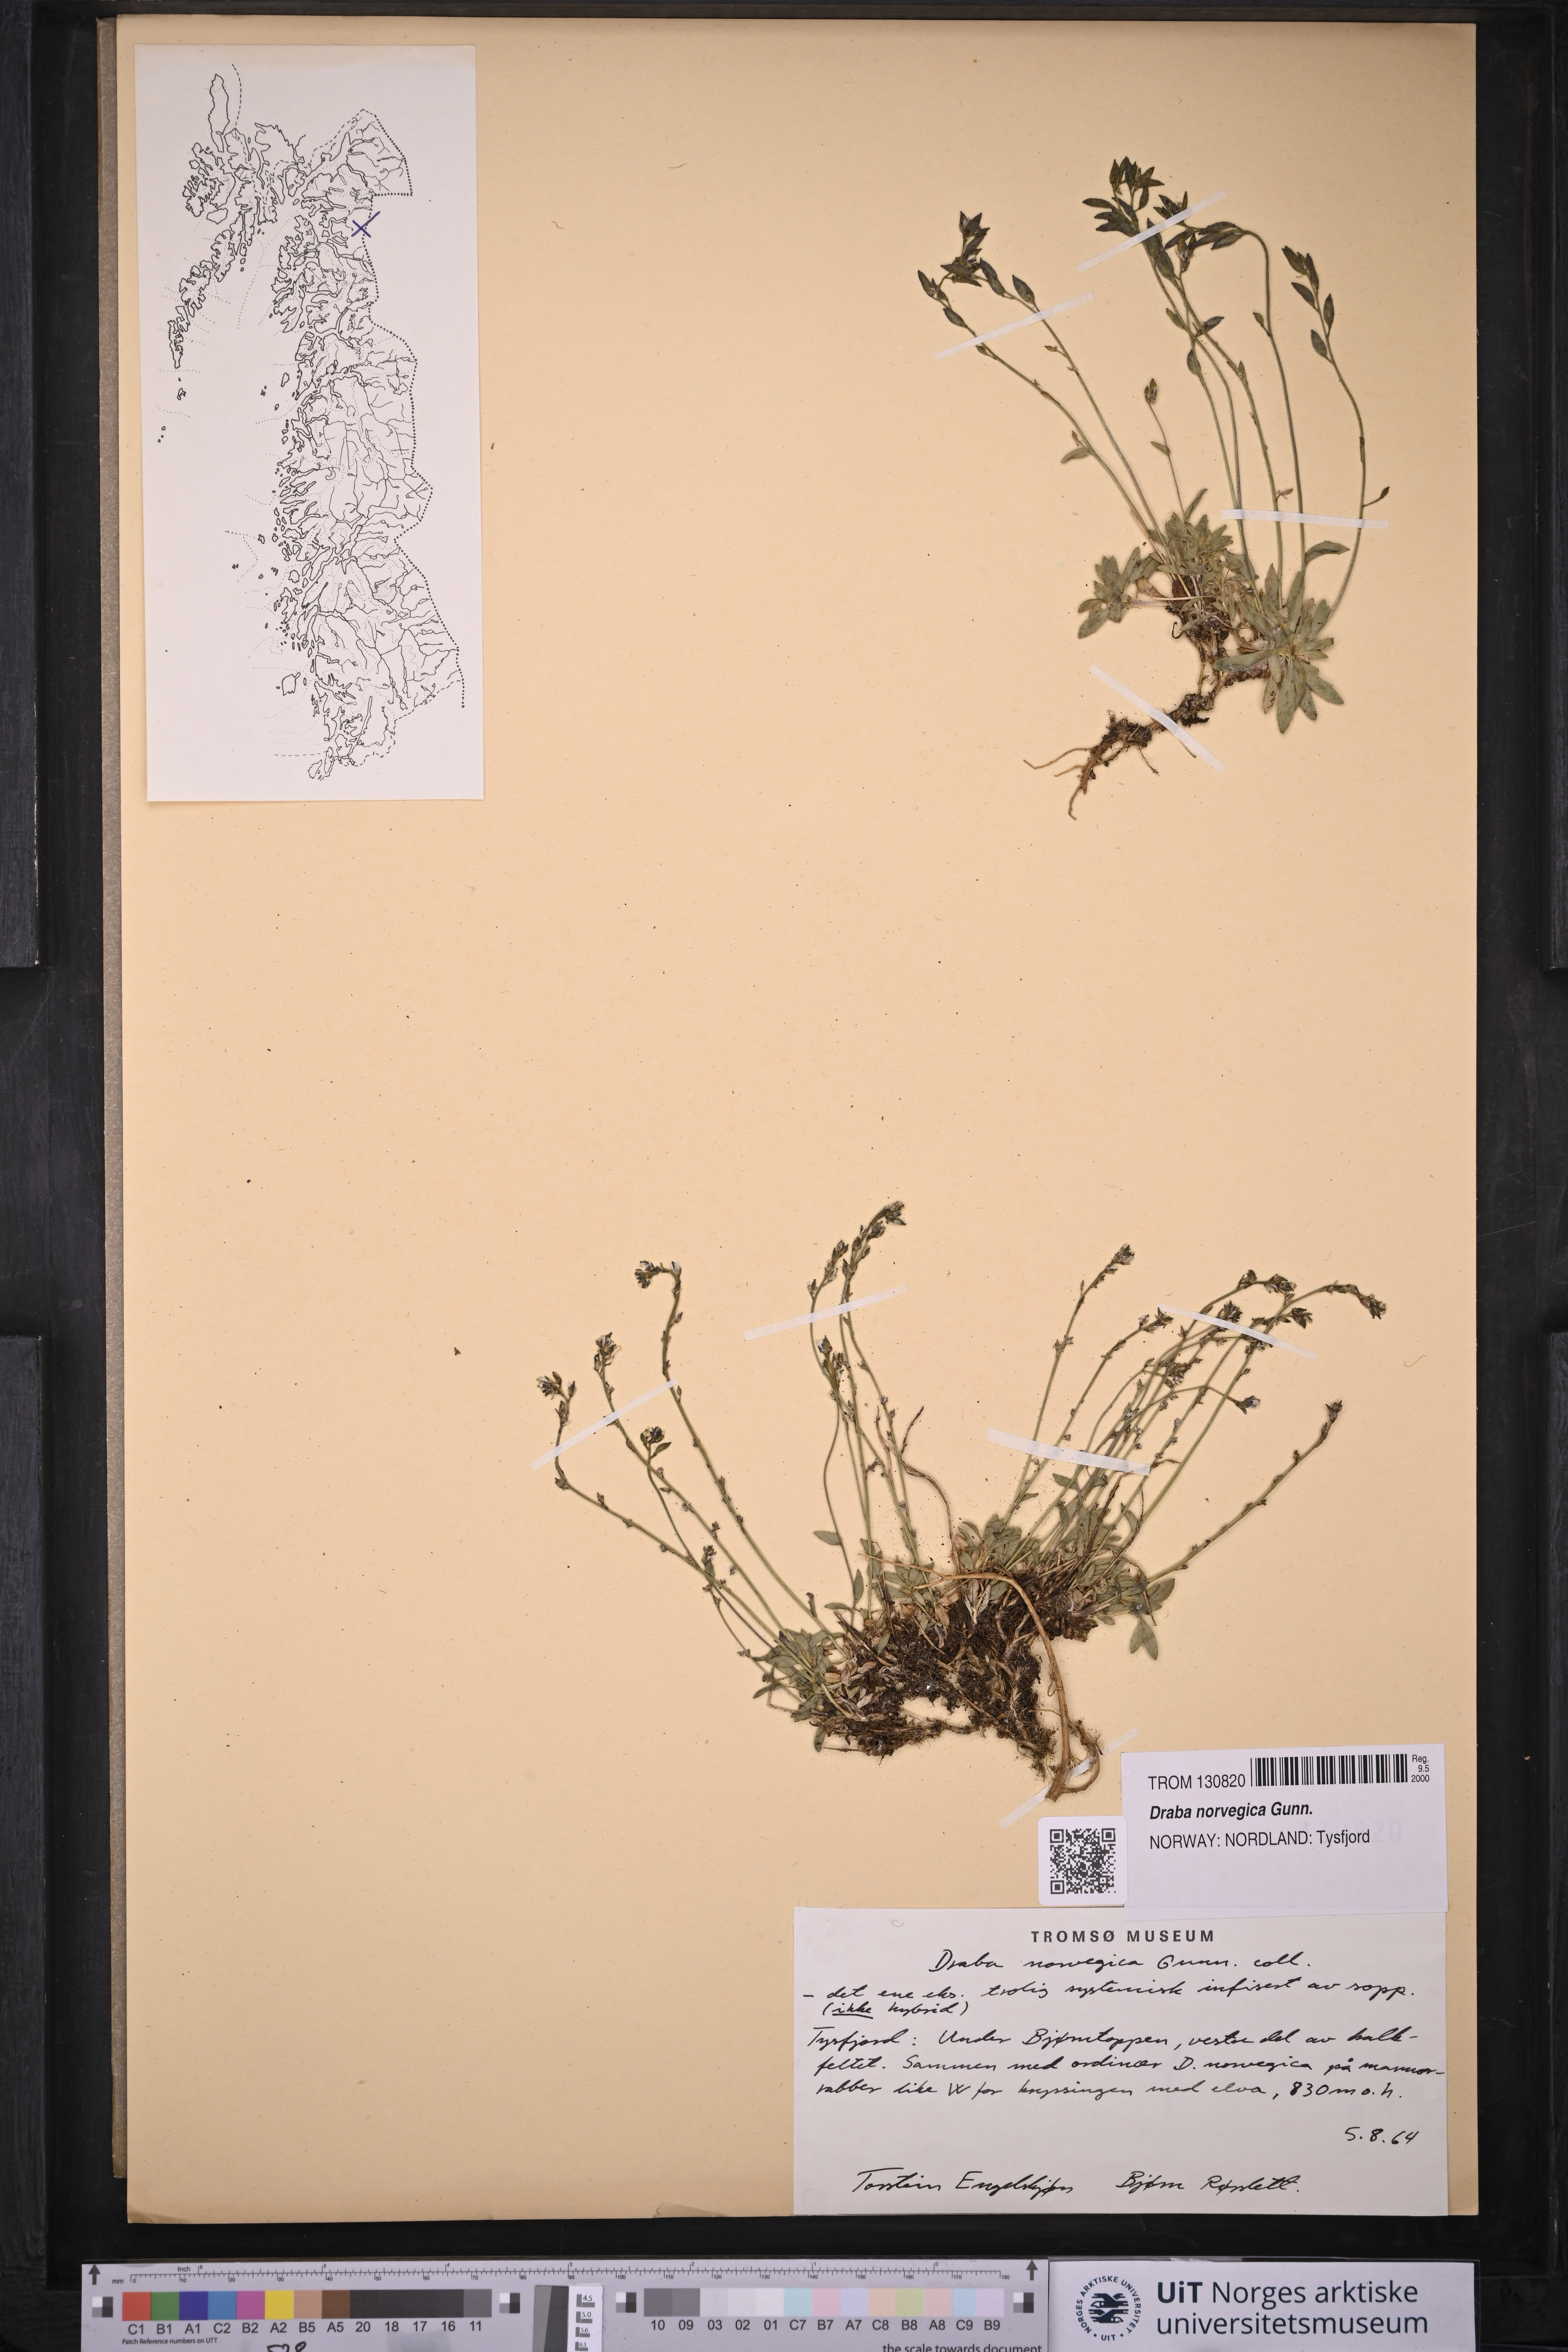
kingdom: Plantae
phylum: Tracheophyta
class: Magnoliopsida
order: Brassicales
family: Brassicaceae
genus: Draba
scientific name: Draba norvegica
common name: Rock whitlowgrass
